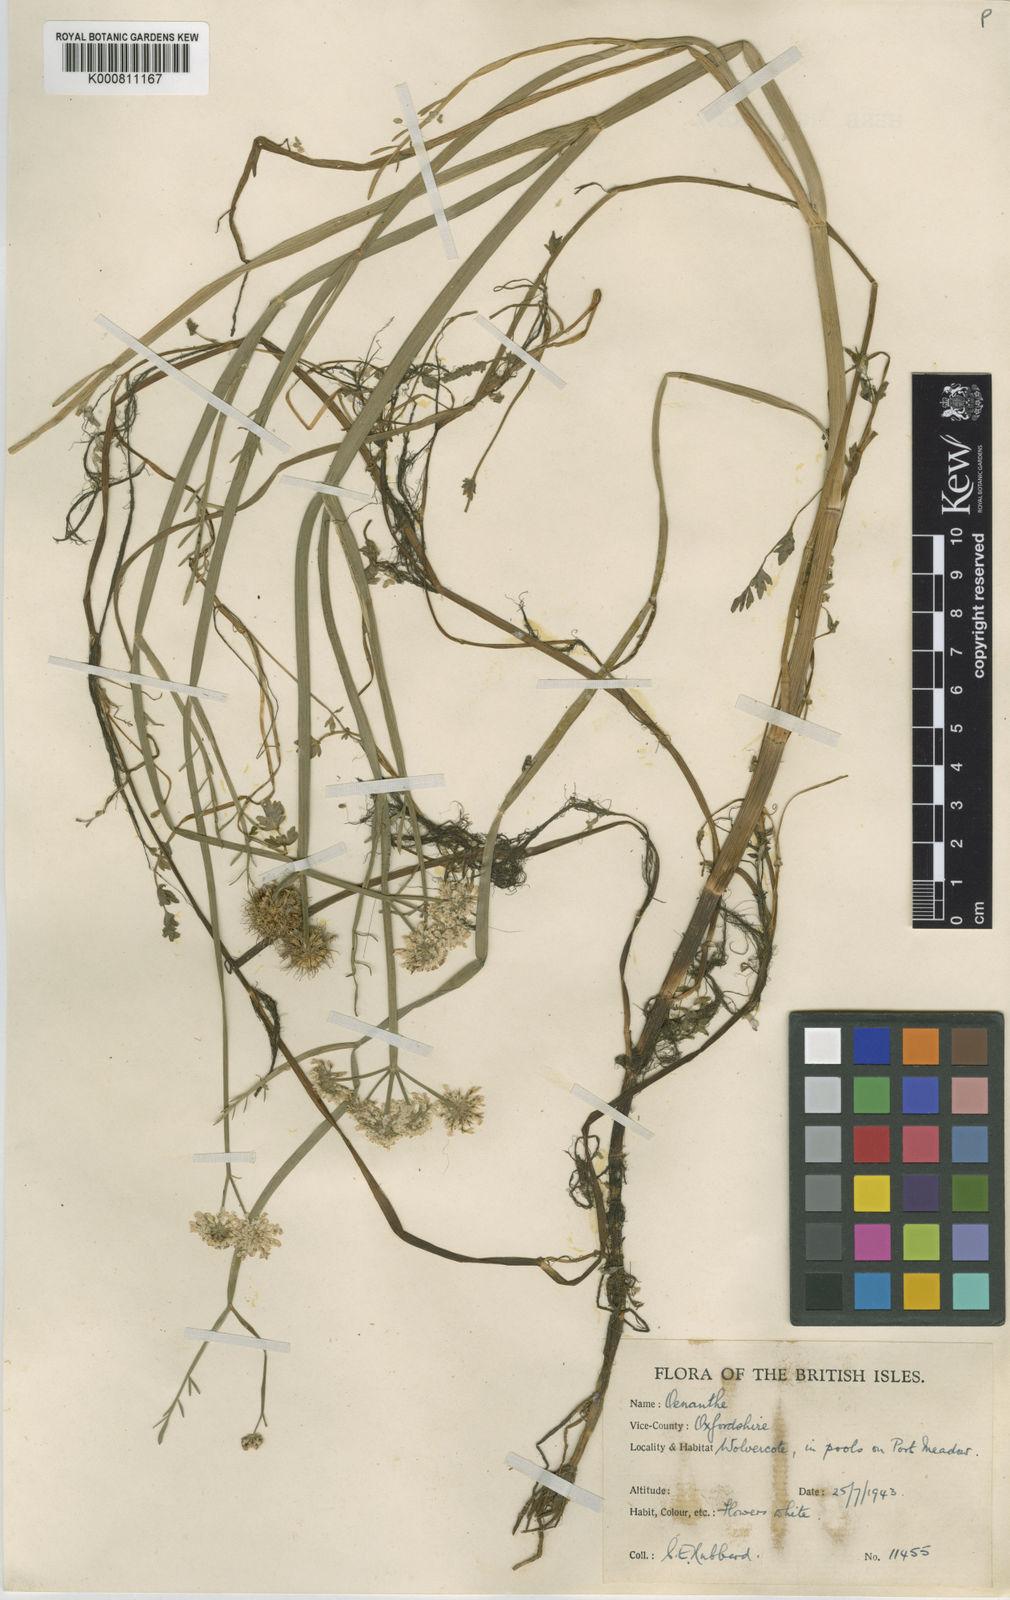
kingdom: Plantae
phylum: Tracheophyta
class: Magnoliopsida
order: Apiales
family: Apiaceae
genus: Oenanthe
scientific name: Oenanthe fistulosa
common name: Tubular water-dropwort
